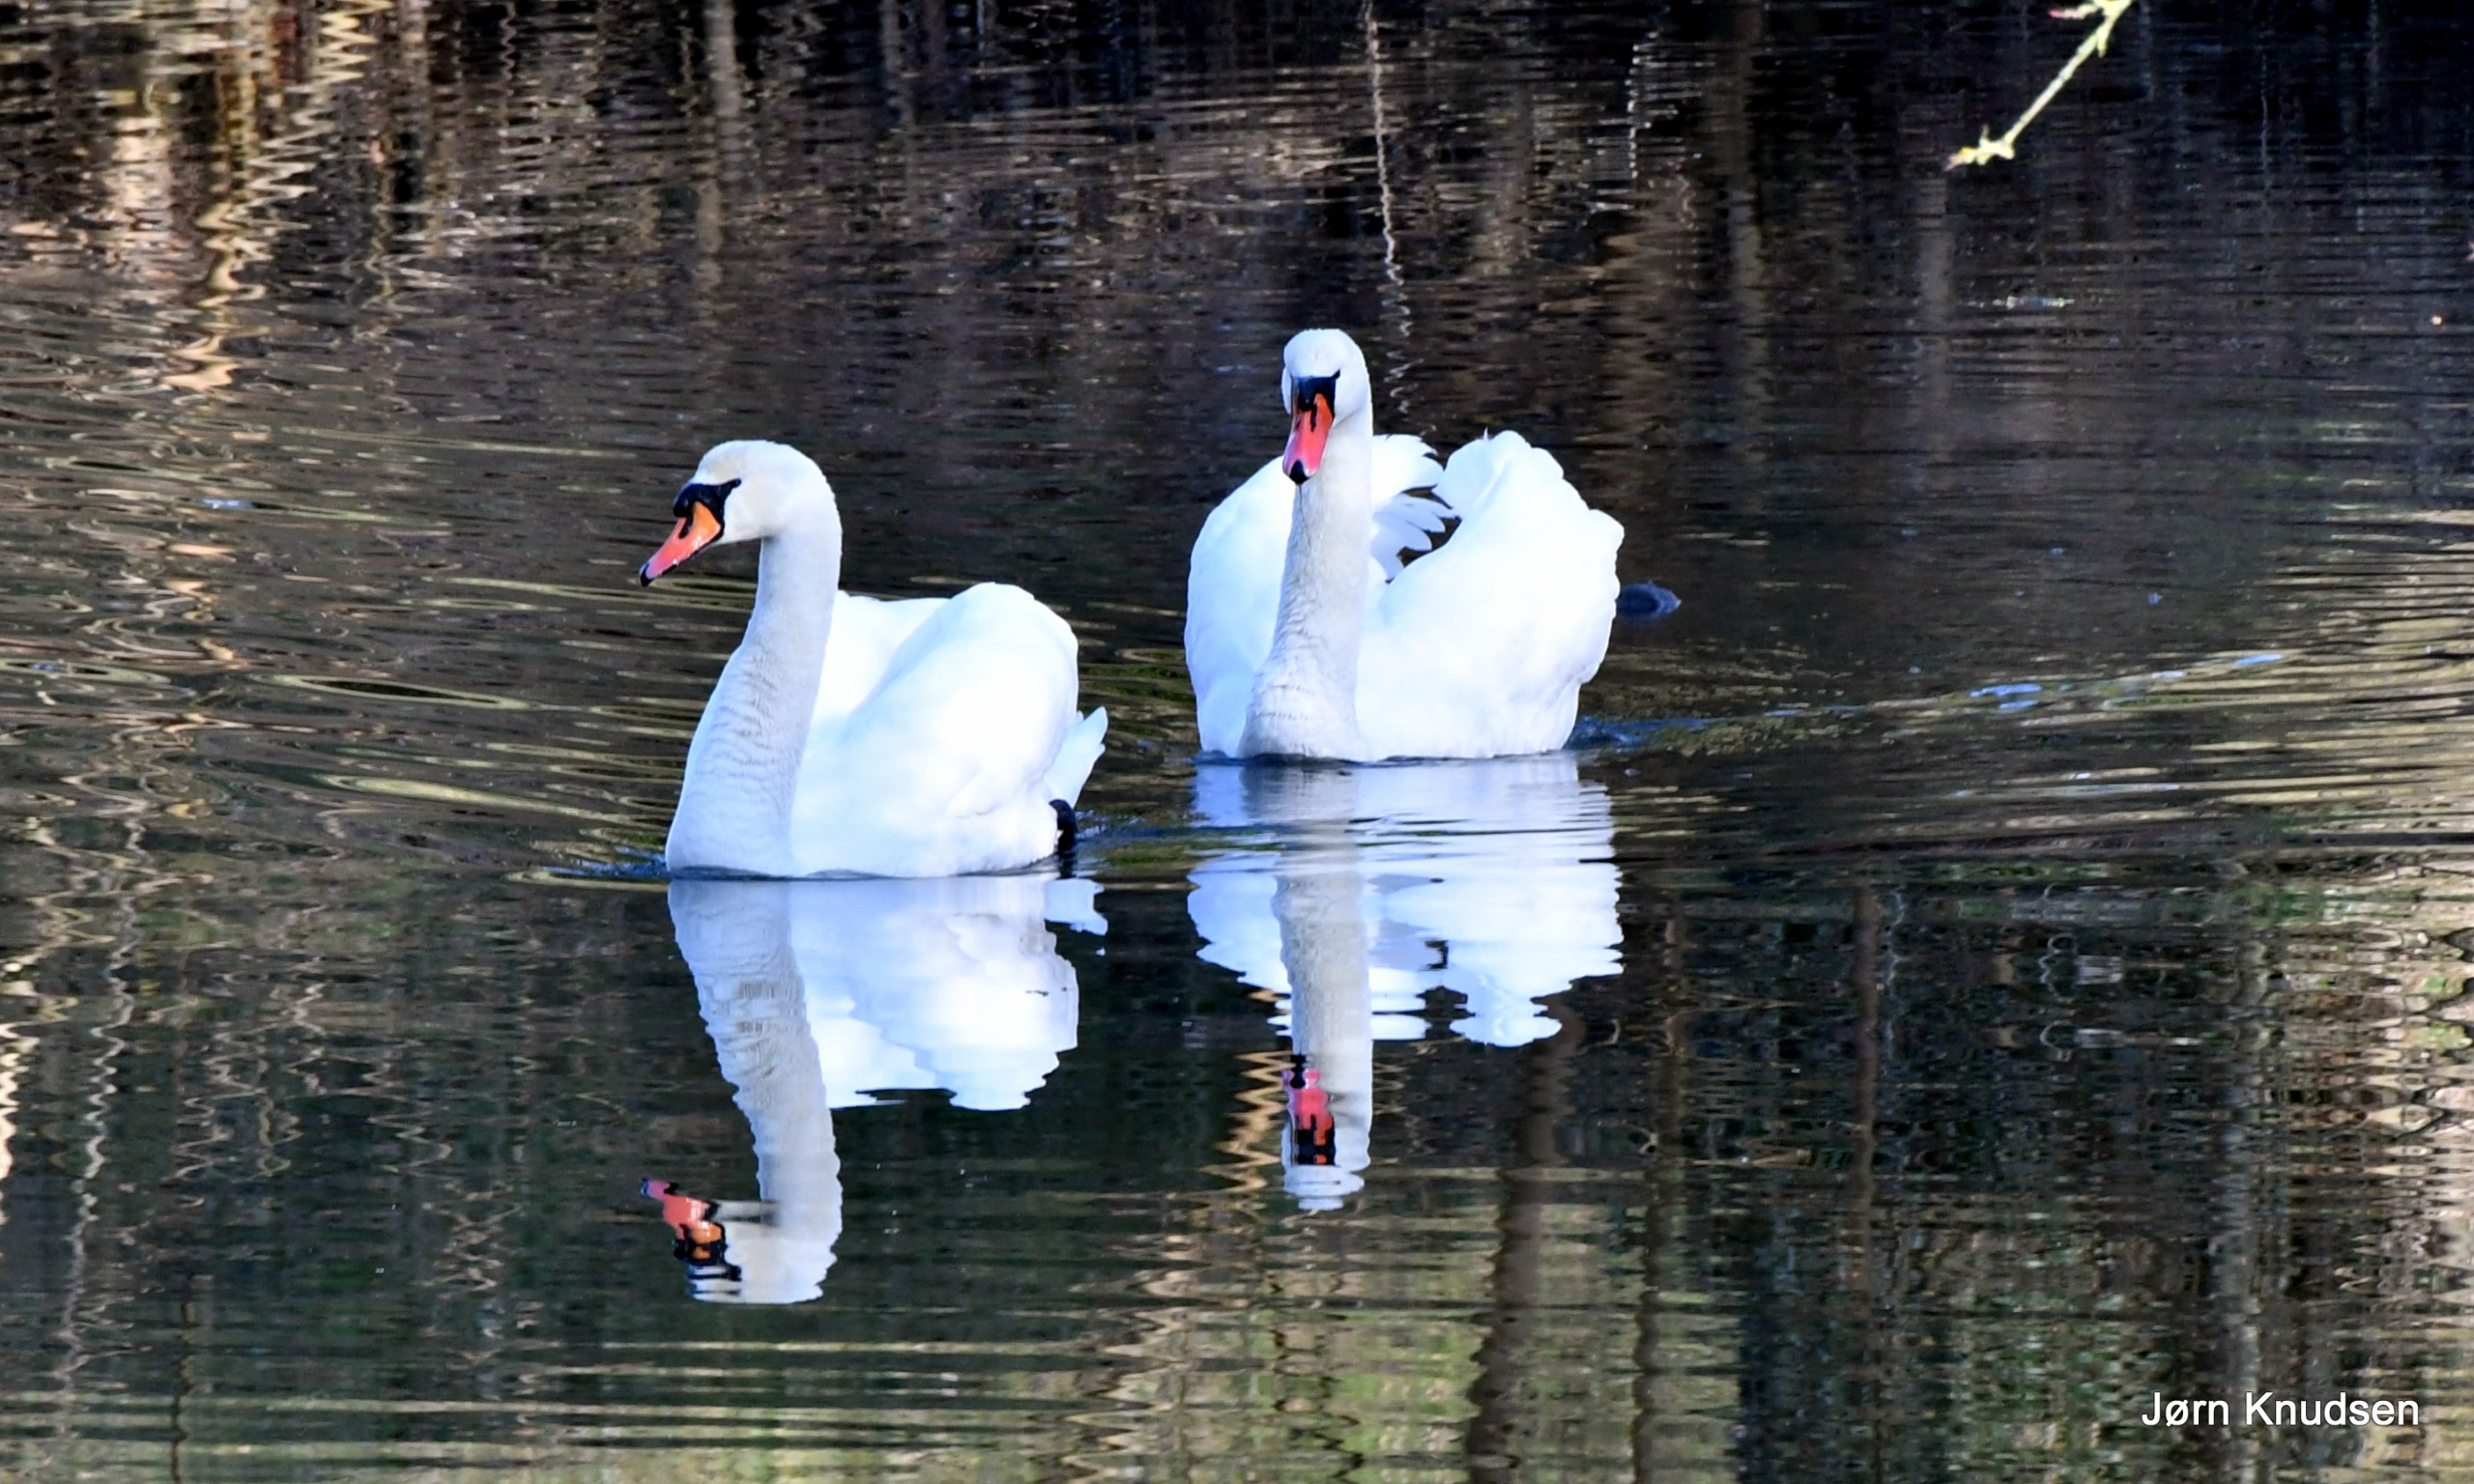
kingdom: Animalia
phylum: Chordata
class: Aves
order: Anseriformes
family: Anatidae
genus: Cygnus
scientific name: Cygnus olor
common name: Knopsvane
